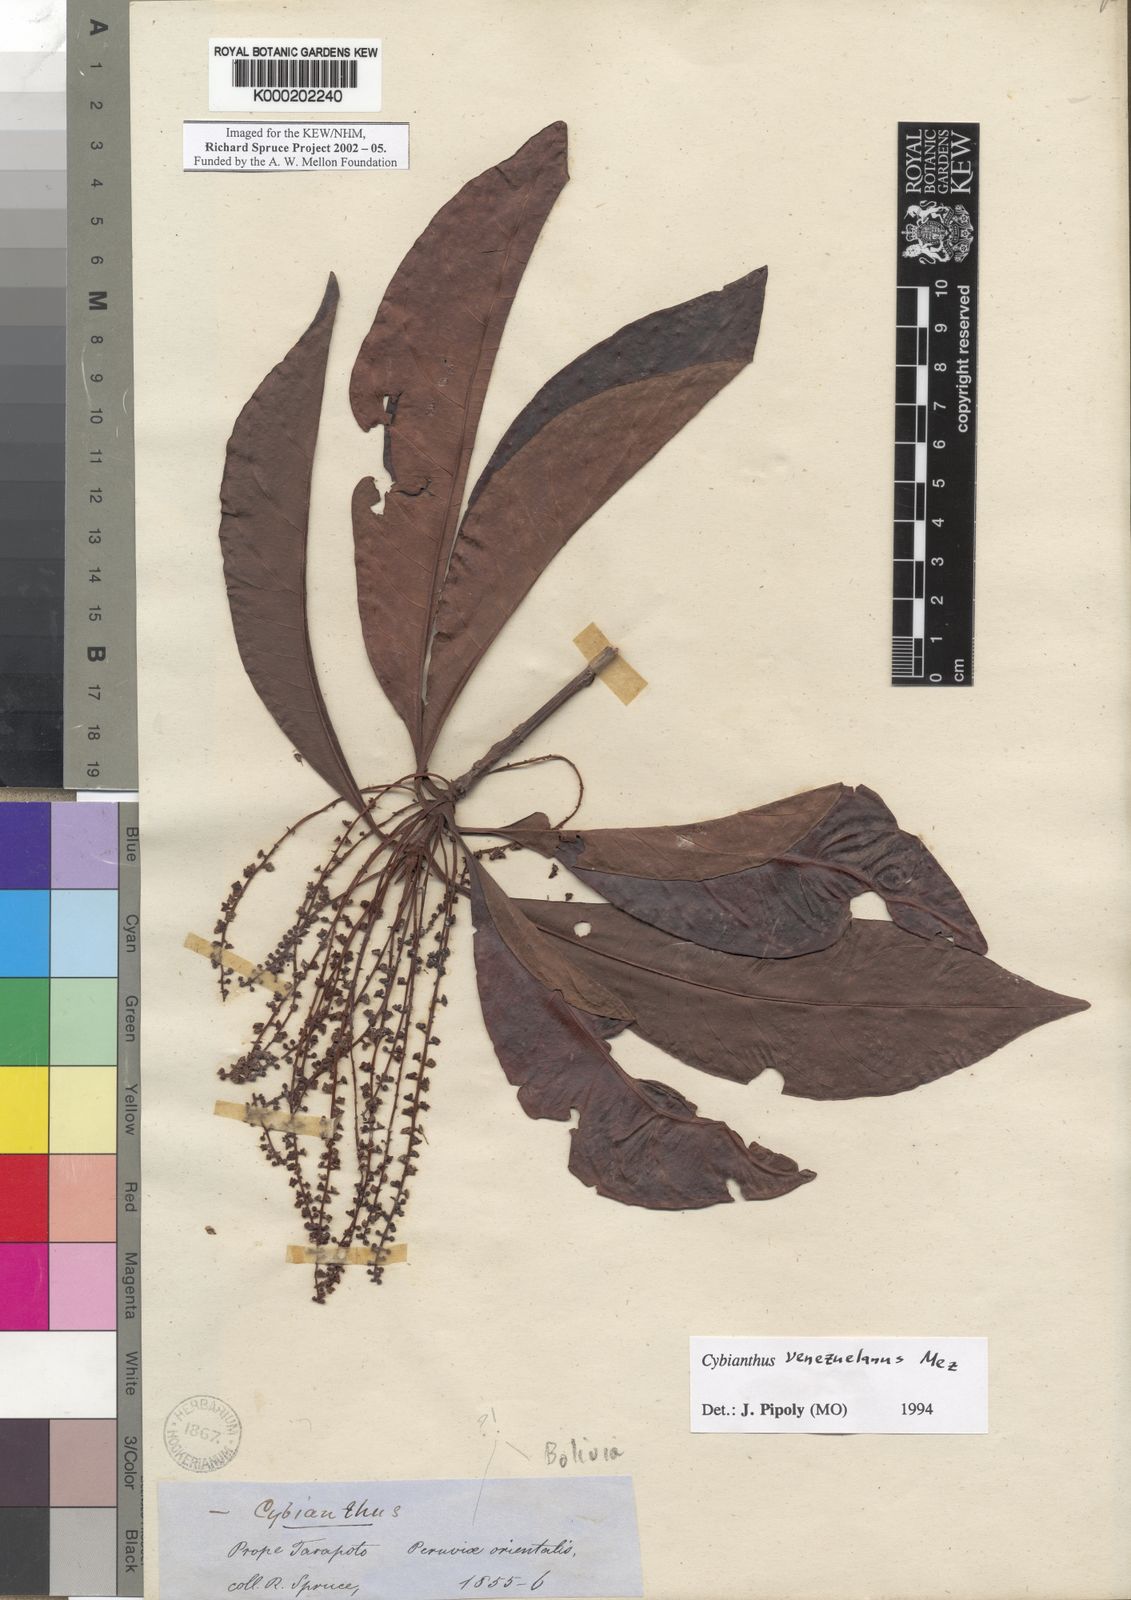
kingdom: Plantae
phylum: Tracheophyta
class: Magnoliopsida
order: Ericales
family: Primulaceae
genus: Cybianthus
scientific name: Cybianthus venezuelanus
